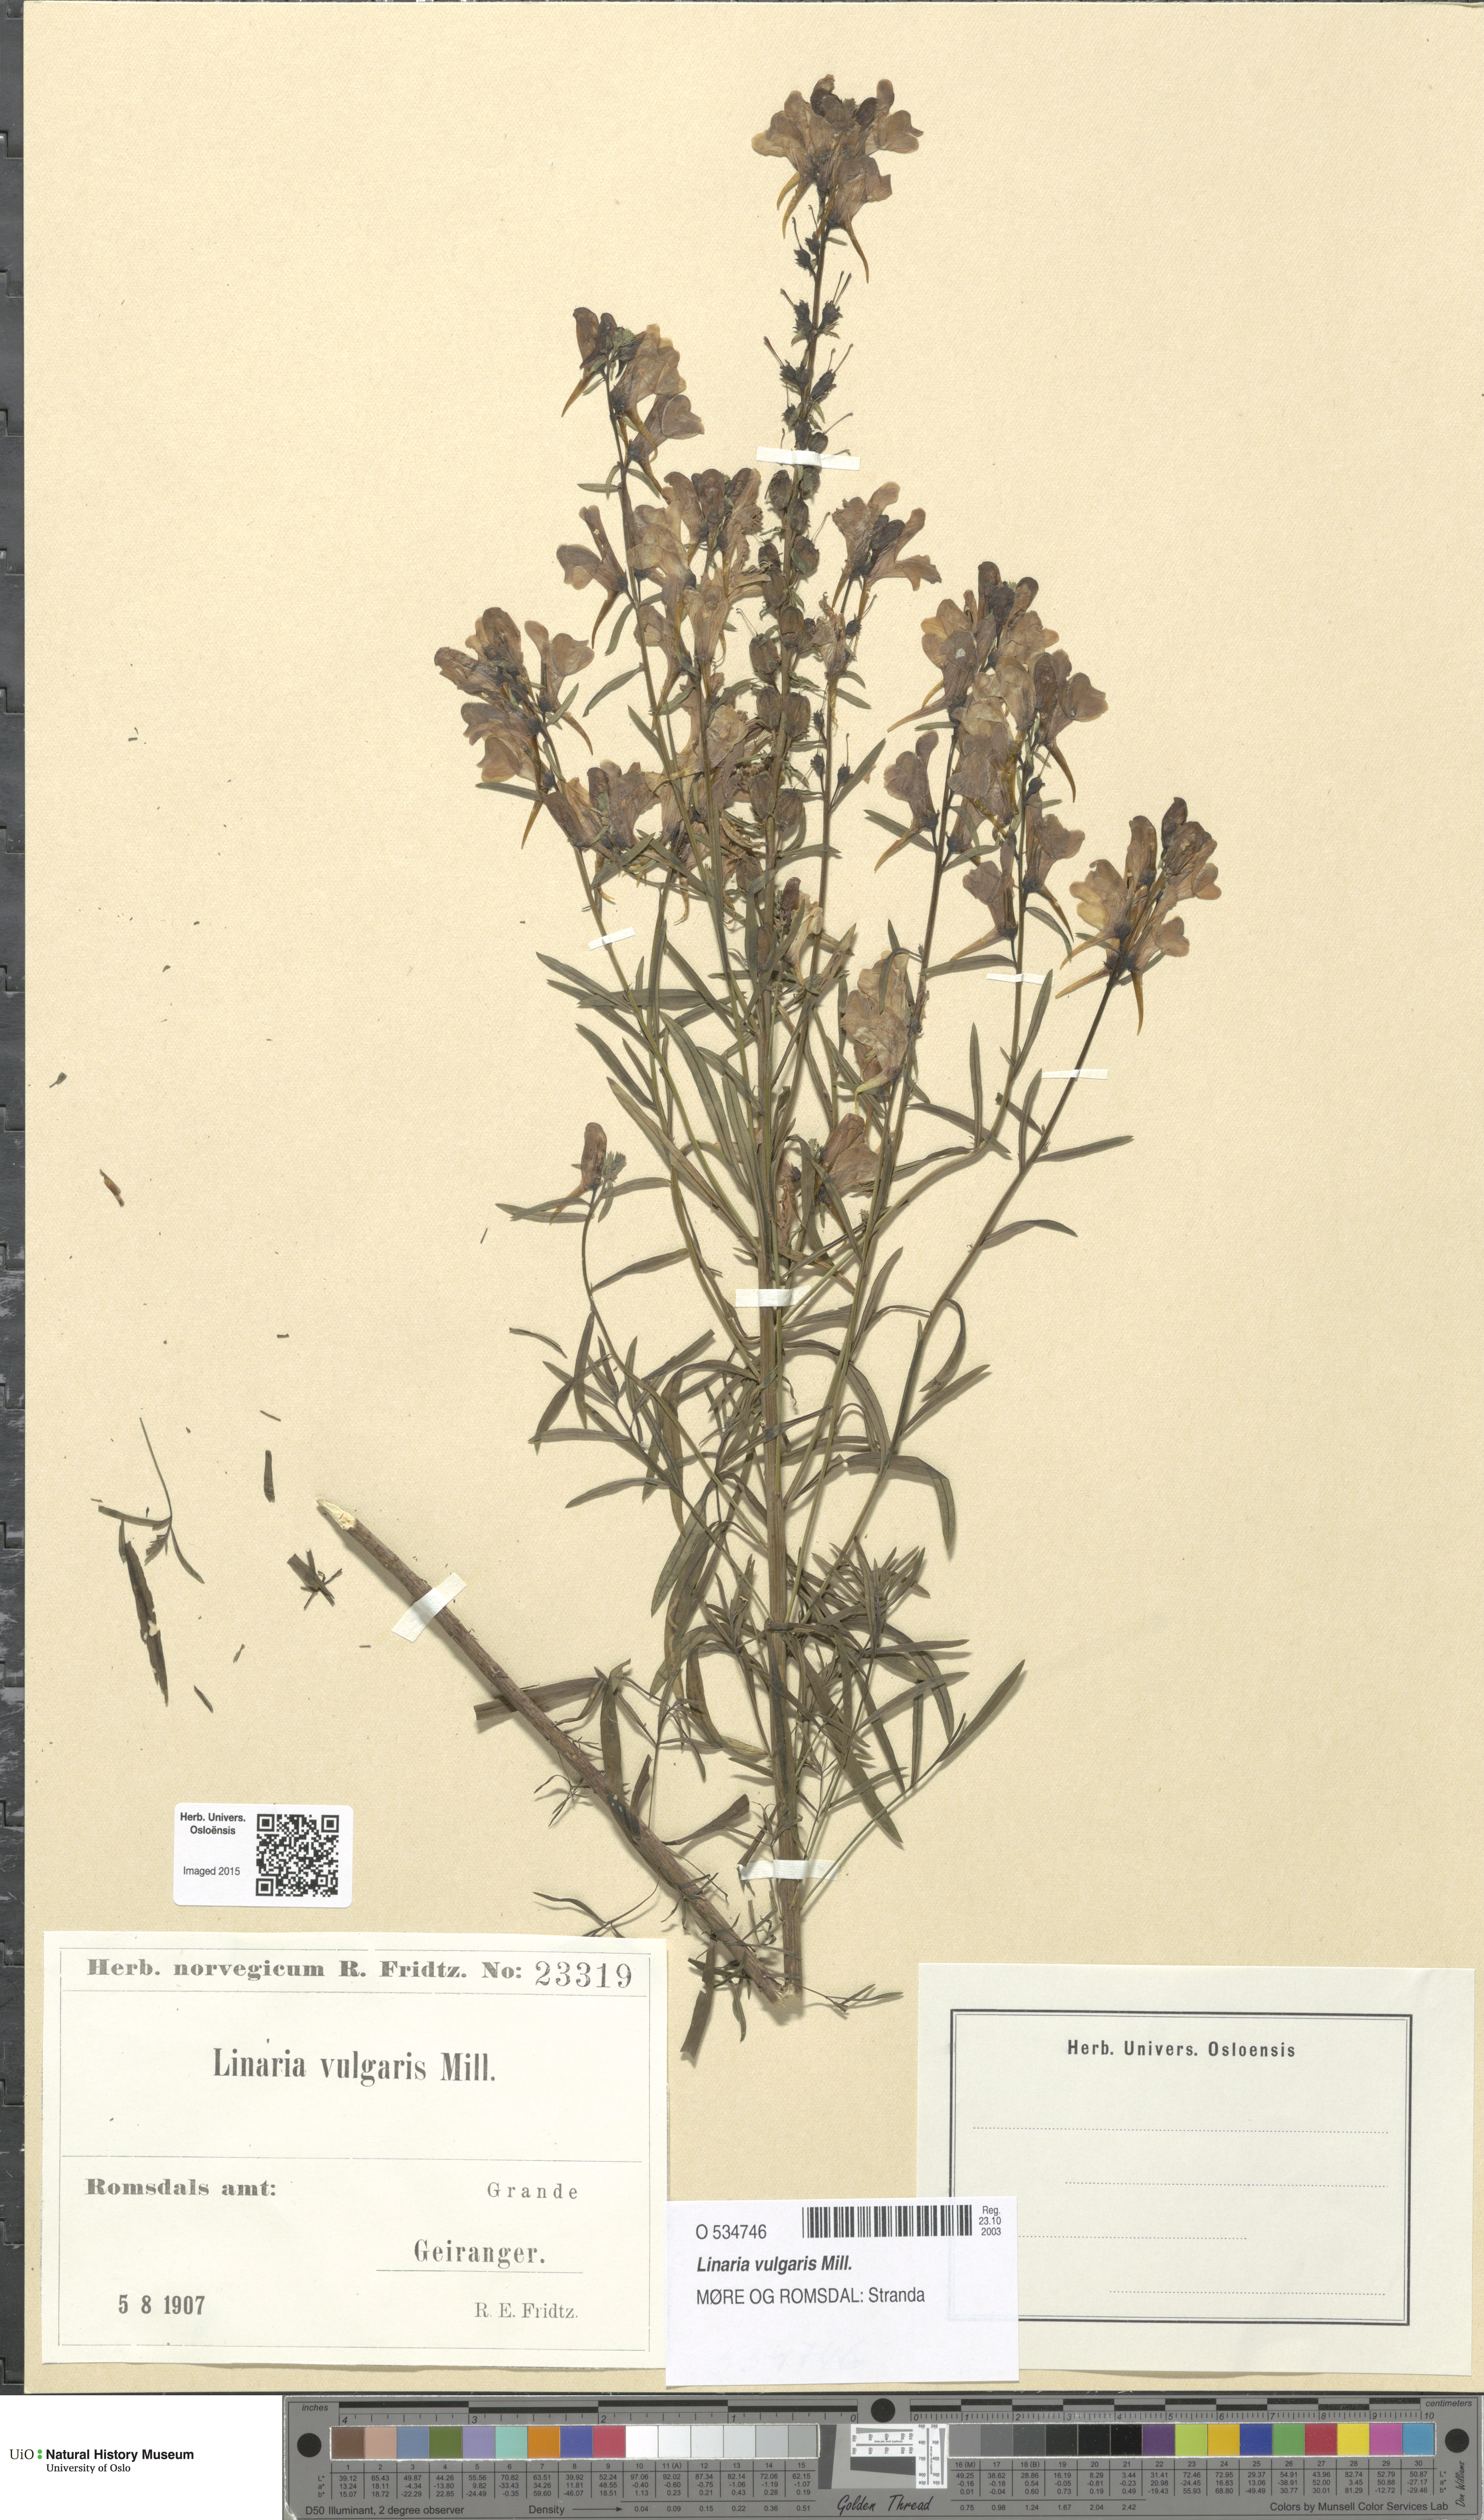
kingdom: Plantae
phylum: Tracheophyta
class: Magnoliopsida
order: Lamiales
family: Plantaginaceae
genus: Linaria
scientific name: Linaria vulgaris
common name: Butter and eggs
